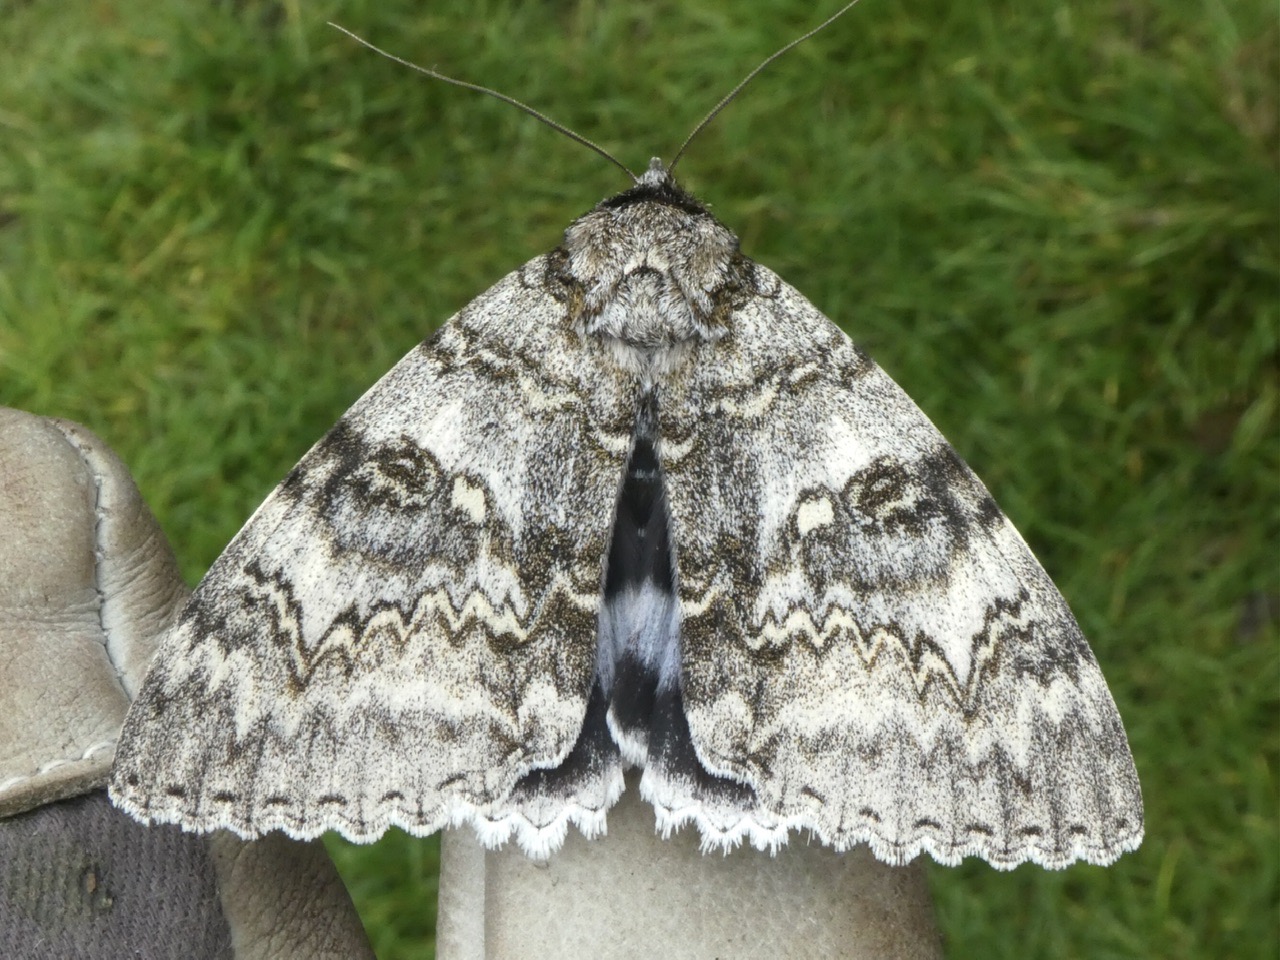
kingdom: Animalia
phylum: Arthropoda
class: Insecta
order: Lepidoptera
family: Erebidae
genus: Catocala
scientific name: Catocala fraxini
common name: Blåt ordensbånd
